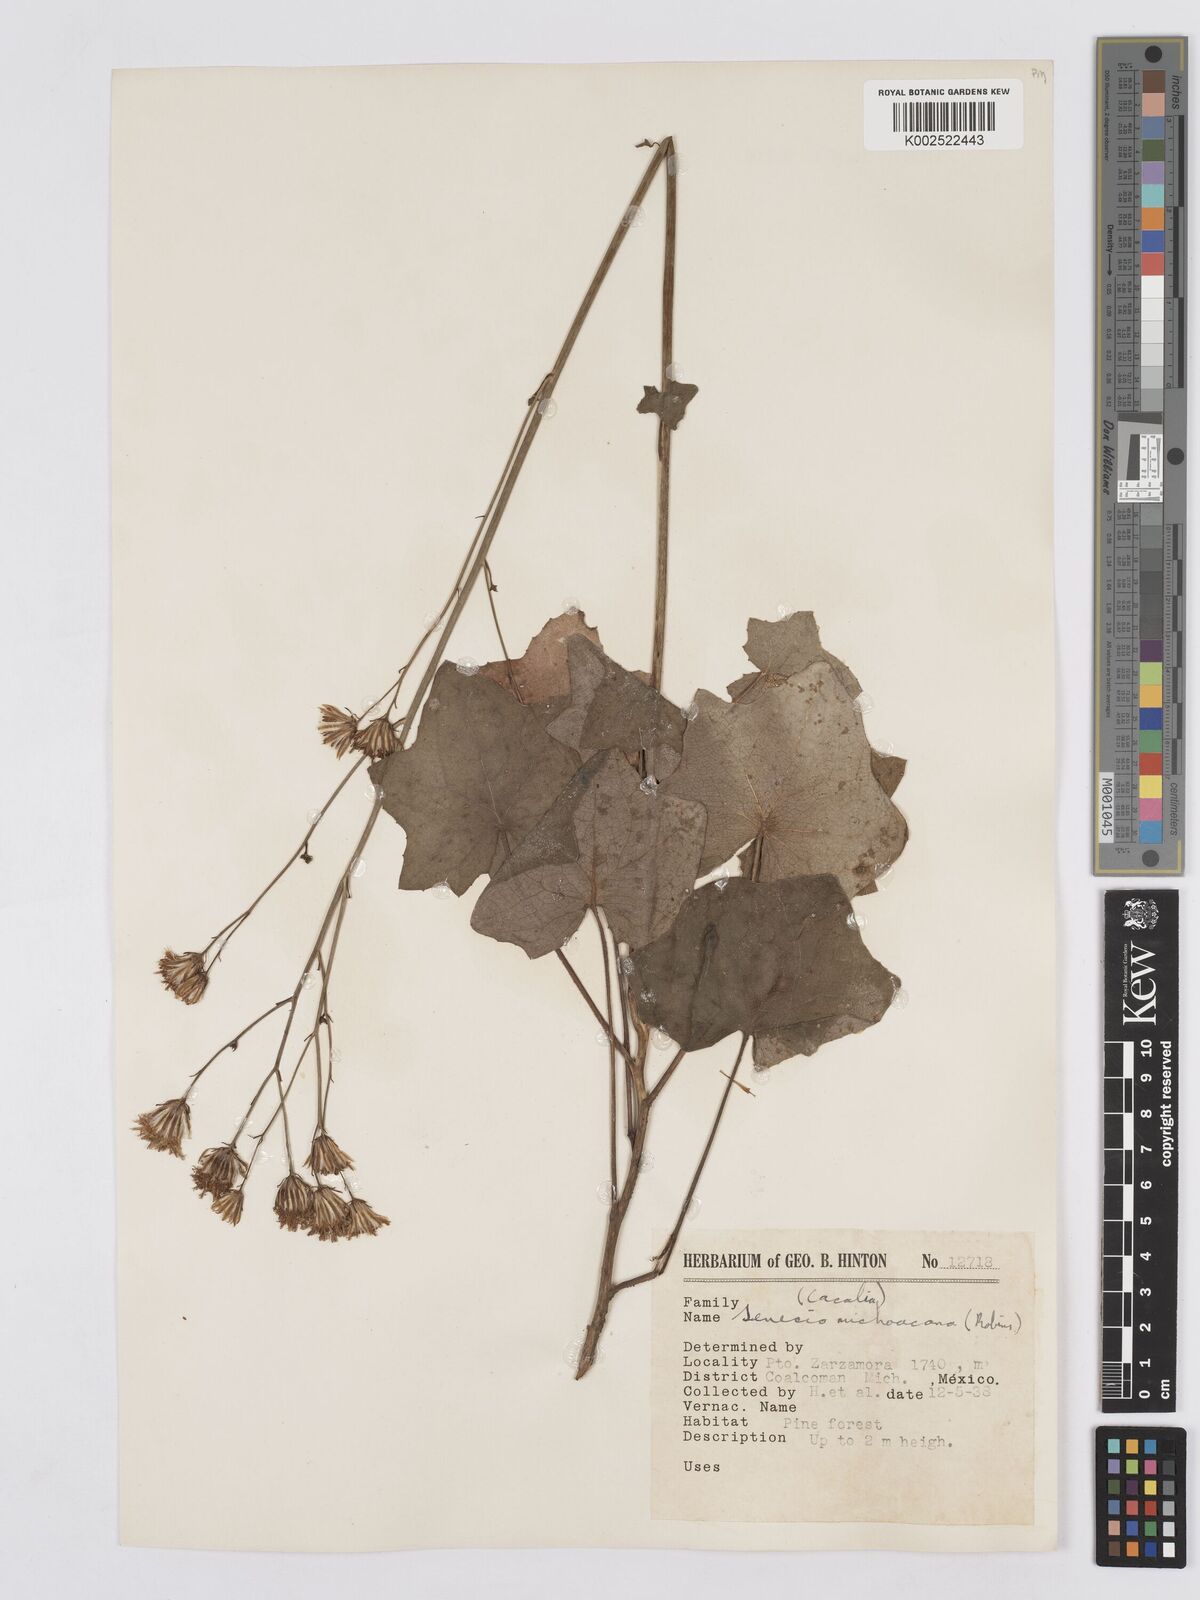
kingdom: Plantae
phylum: Tracheophyta
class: Magnoliopsida
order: Asterales
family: Asteraceae
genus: Roldana
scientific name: Roldana michoacana
